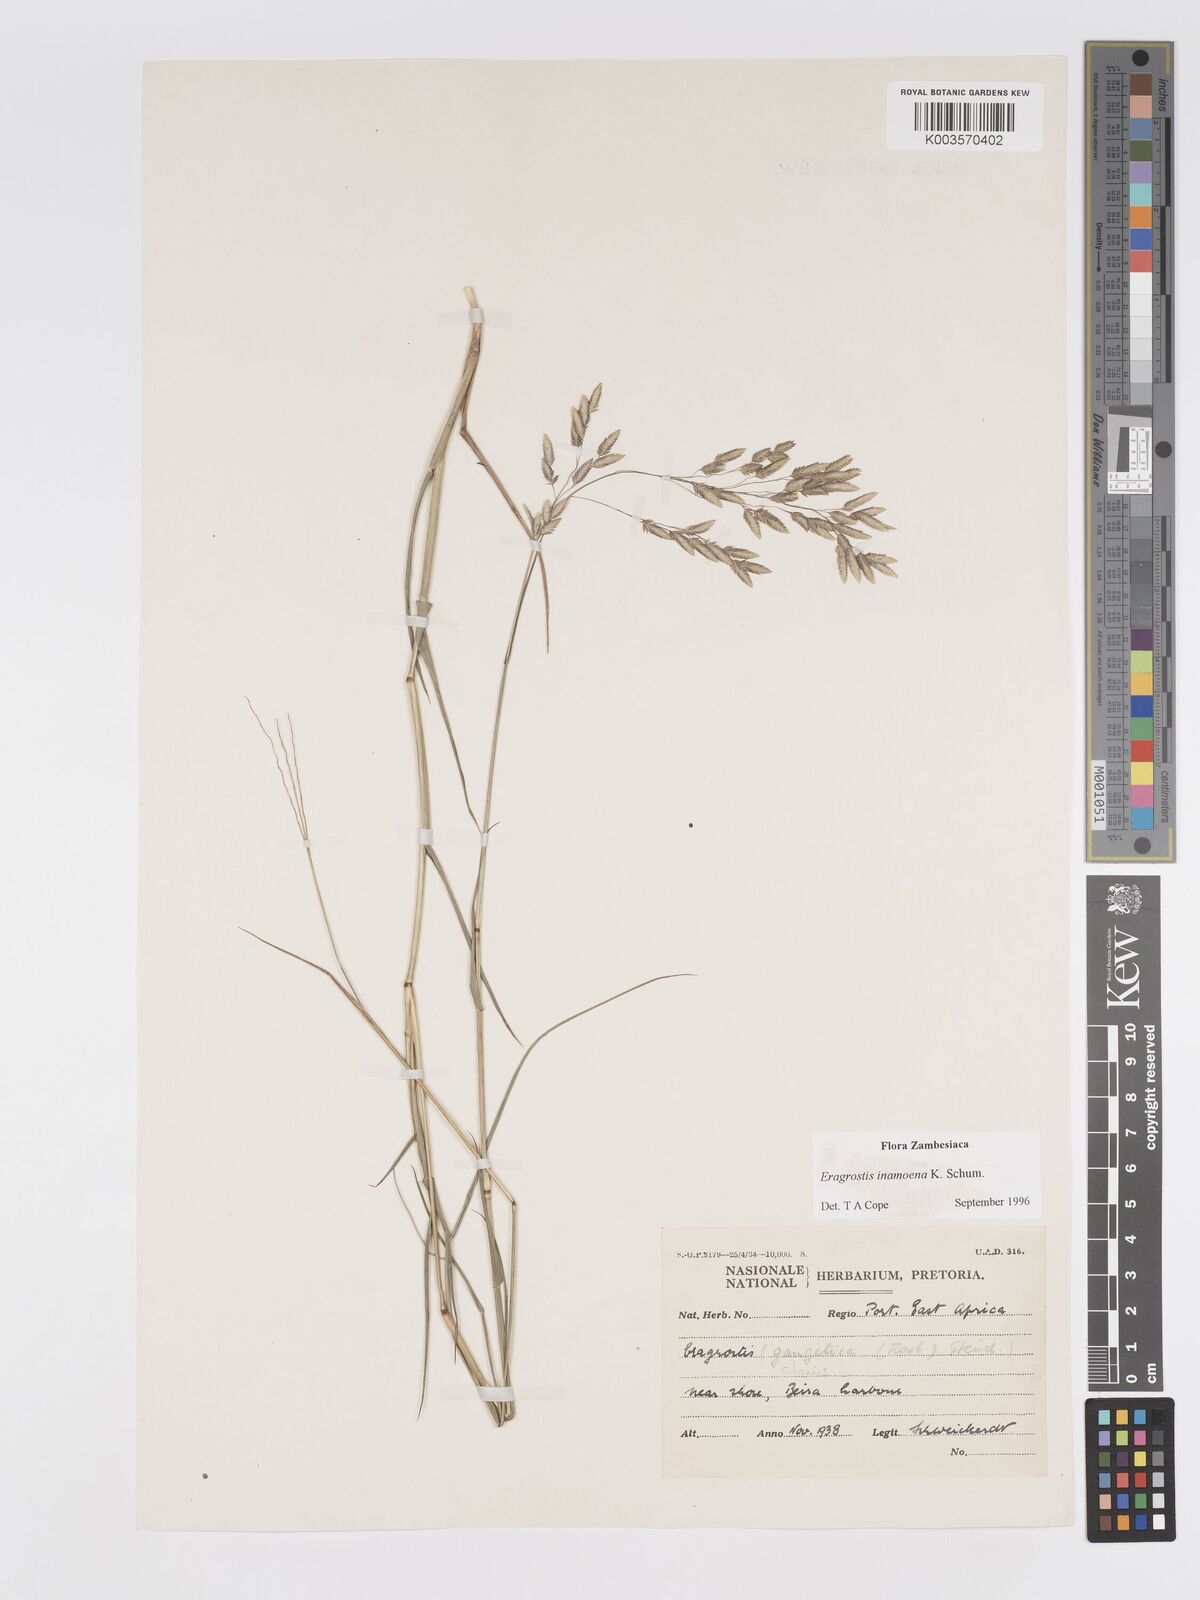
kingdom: Plantae
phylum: Tracheophyta
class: Liliopsida
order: Poales
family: Poaceae
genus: Eragrostis
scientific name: Eragrostis inamoena
